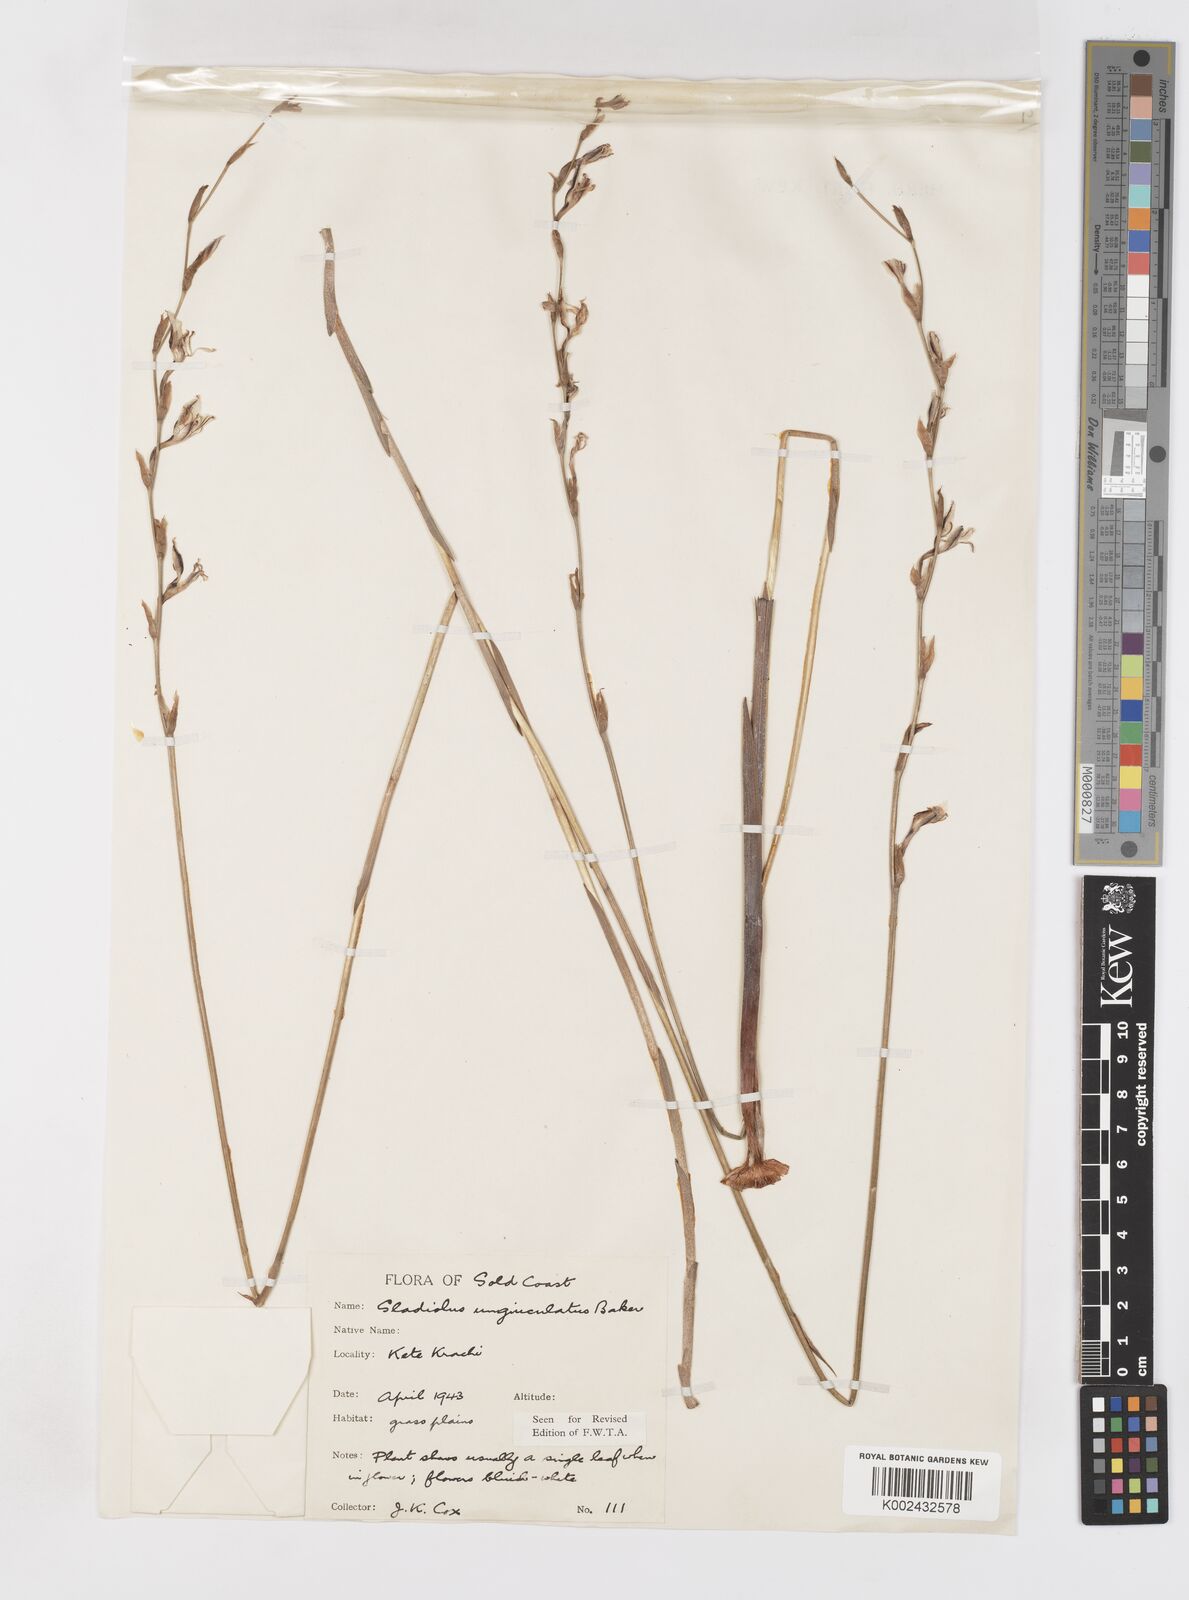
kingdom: Plantae
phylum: Tracheophyta
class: Liliopsida
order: Asparagales
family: Iridaceae
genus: Gladiolus
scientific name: Gladiolus unguiculatus
